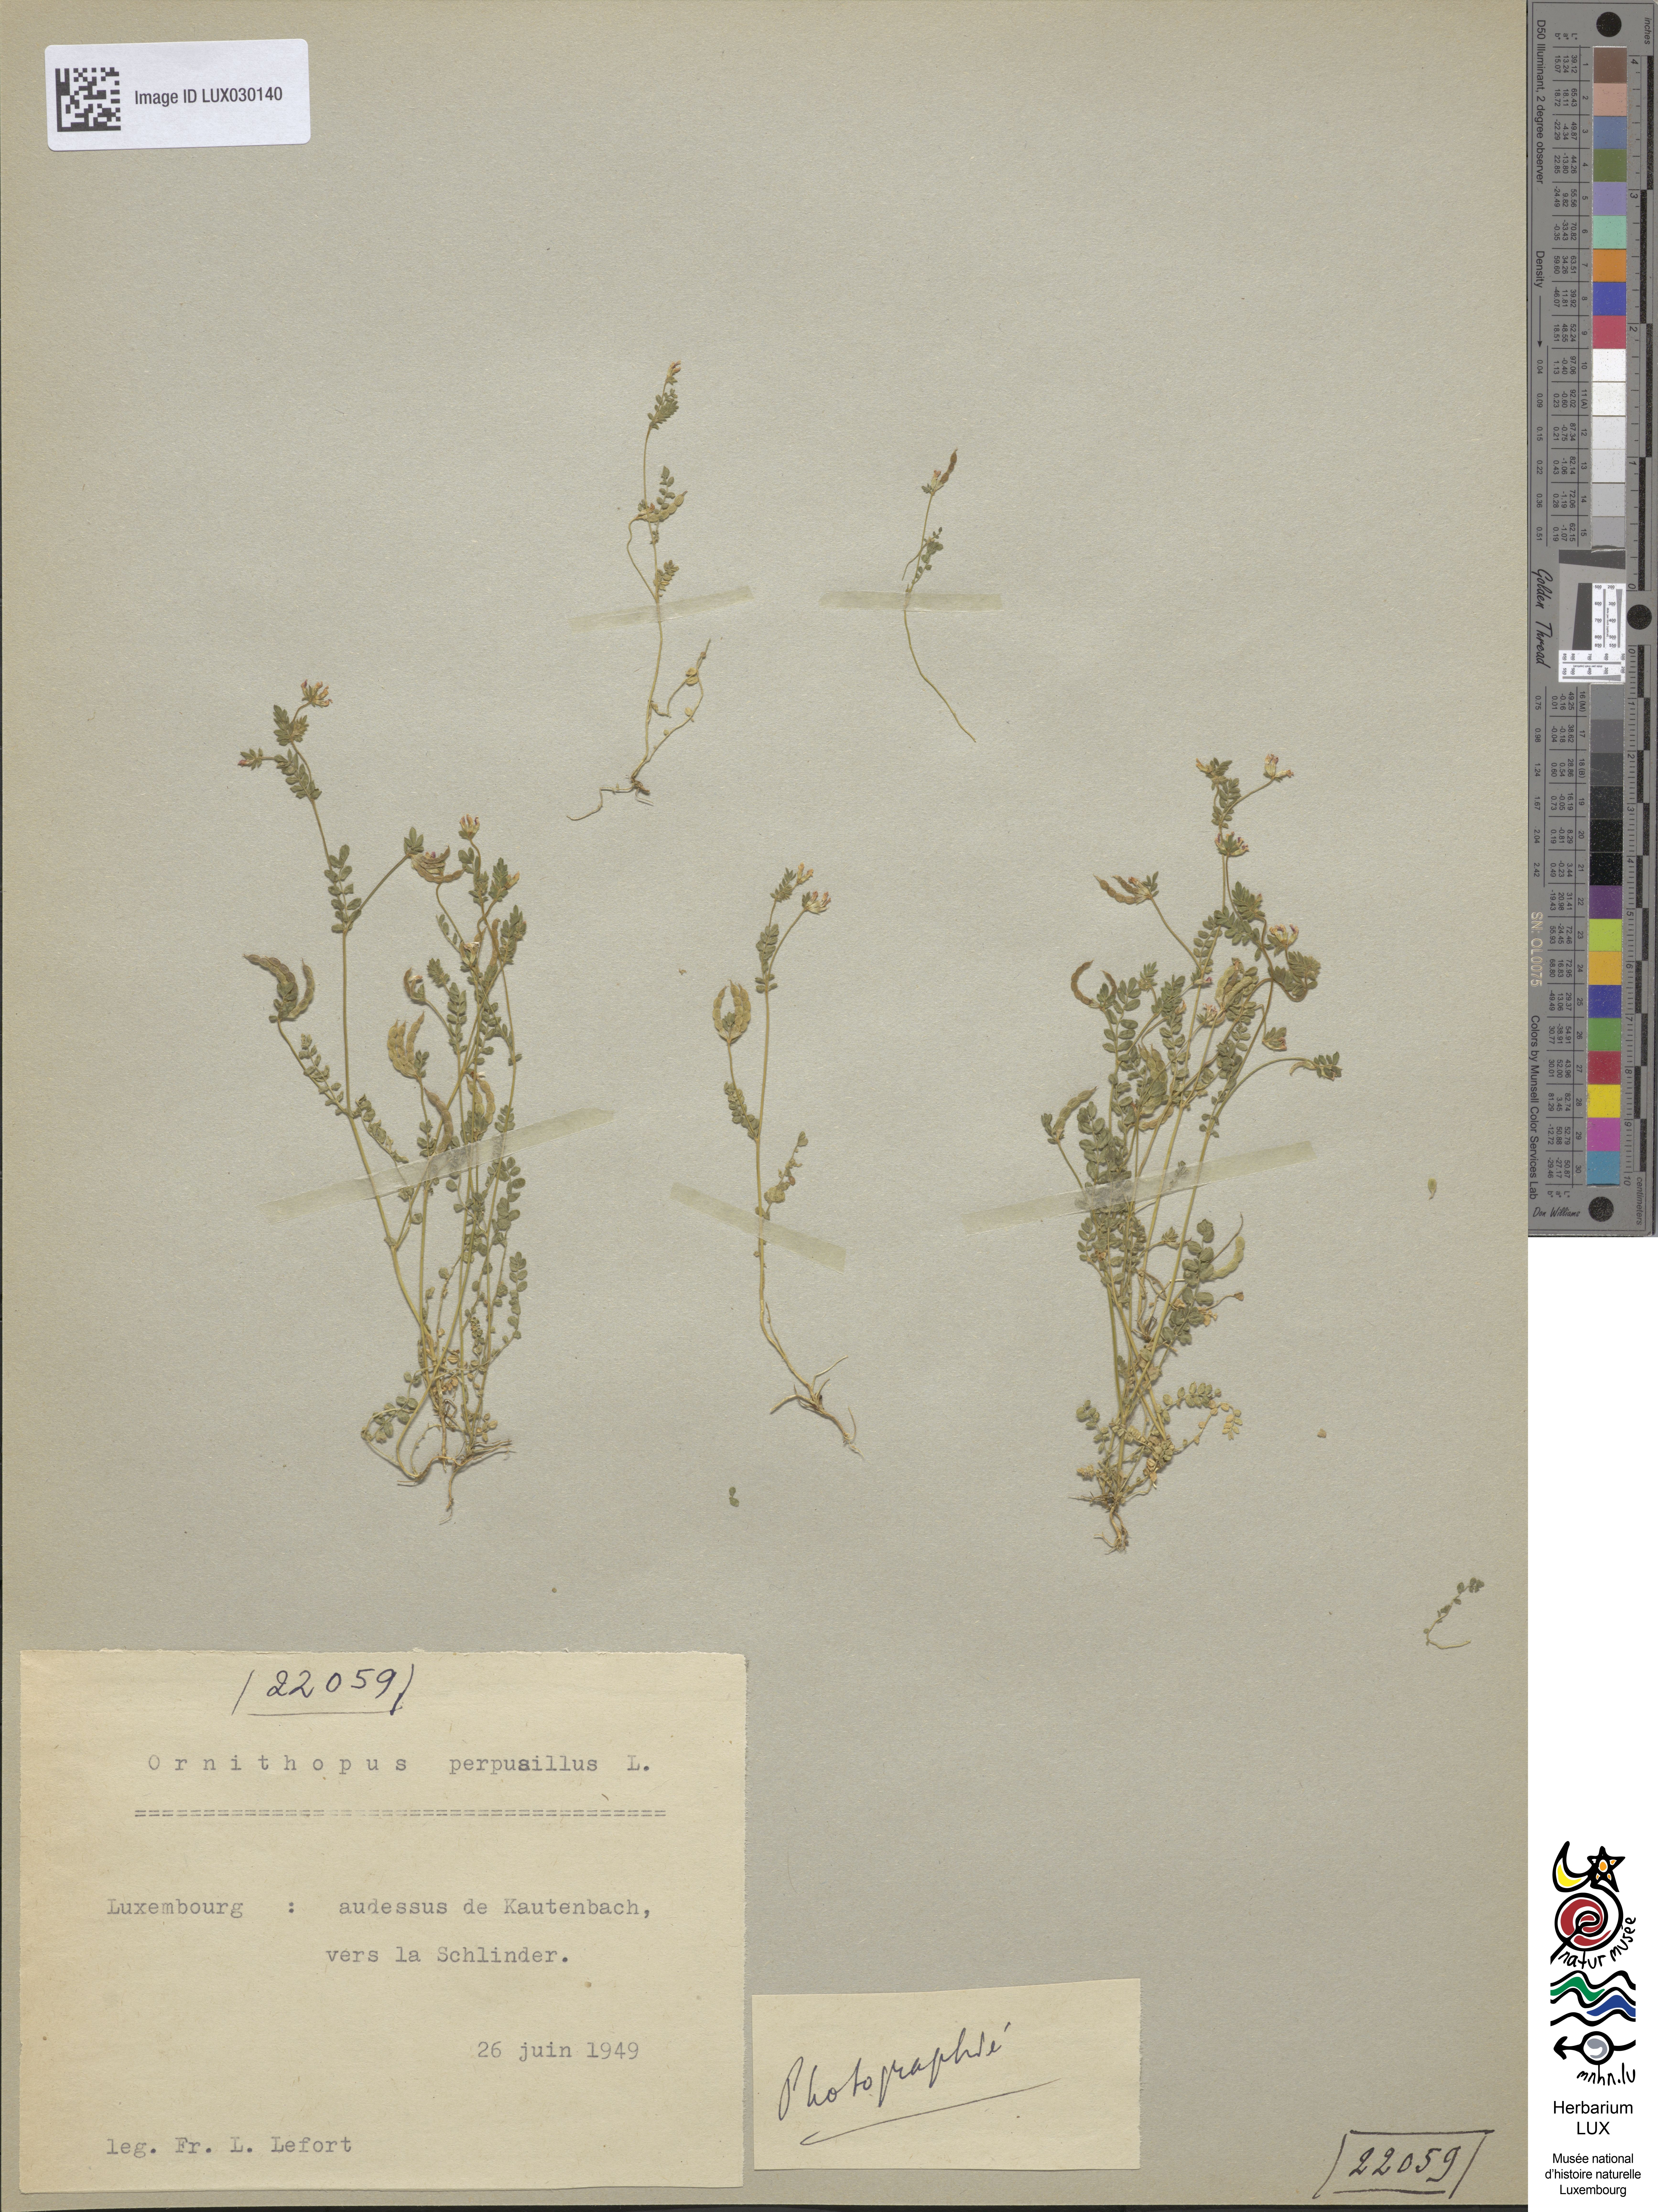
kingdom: Plantae
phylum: Tracheophyta
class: Magnoliopsida
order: Fabales
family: Fabaceae
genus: Ornithopus
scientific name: Ornithopus perpusillus
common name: Bird's-foot
